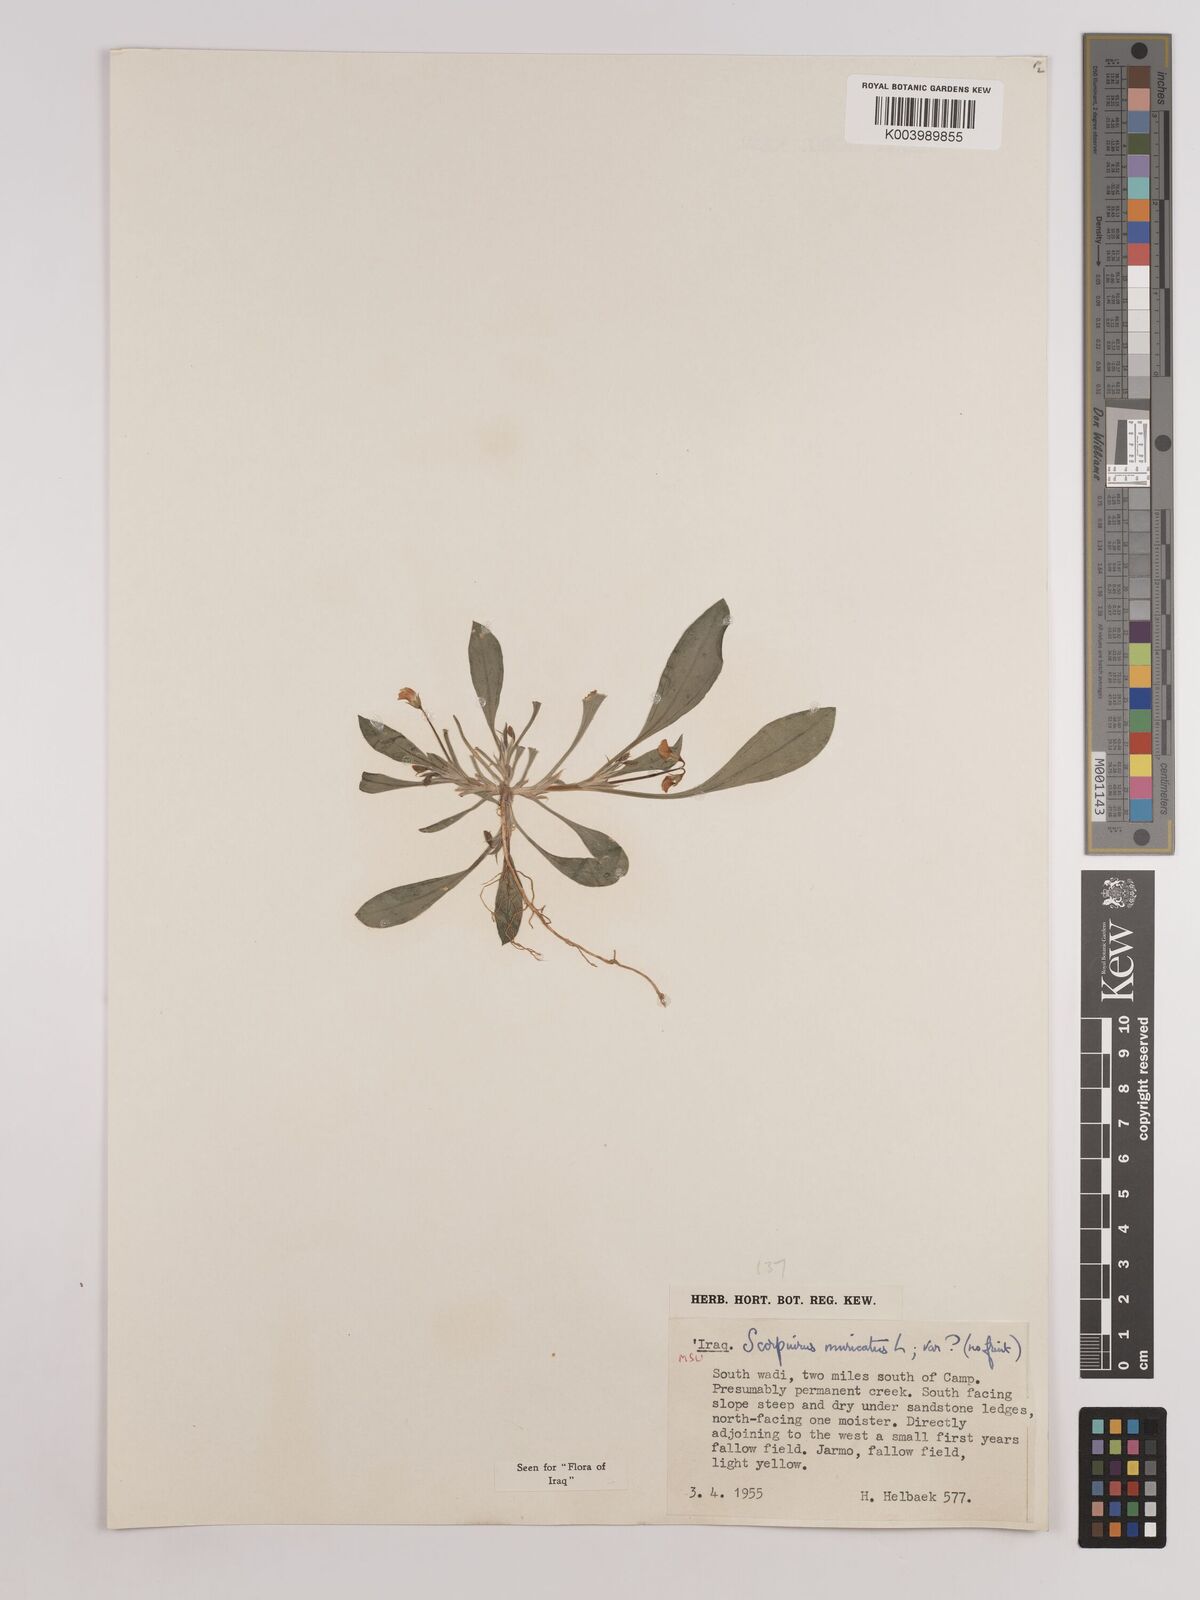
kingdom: Plantae
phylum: Tracheophyta
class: Magnoliopsida
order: Fabales
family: Fabaceae
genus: Scorpiurus
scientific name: Scorpiurus muricatus
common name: Caterpillar-plant
